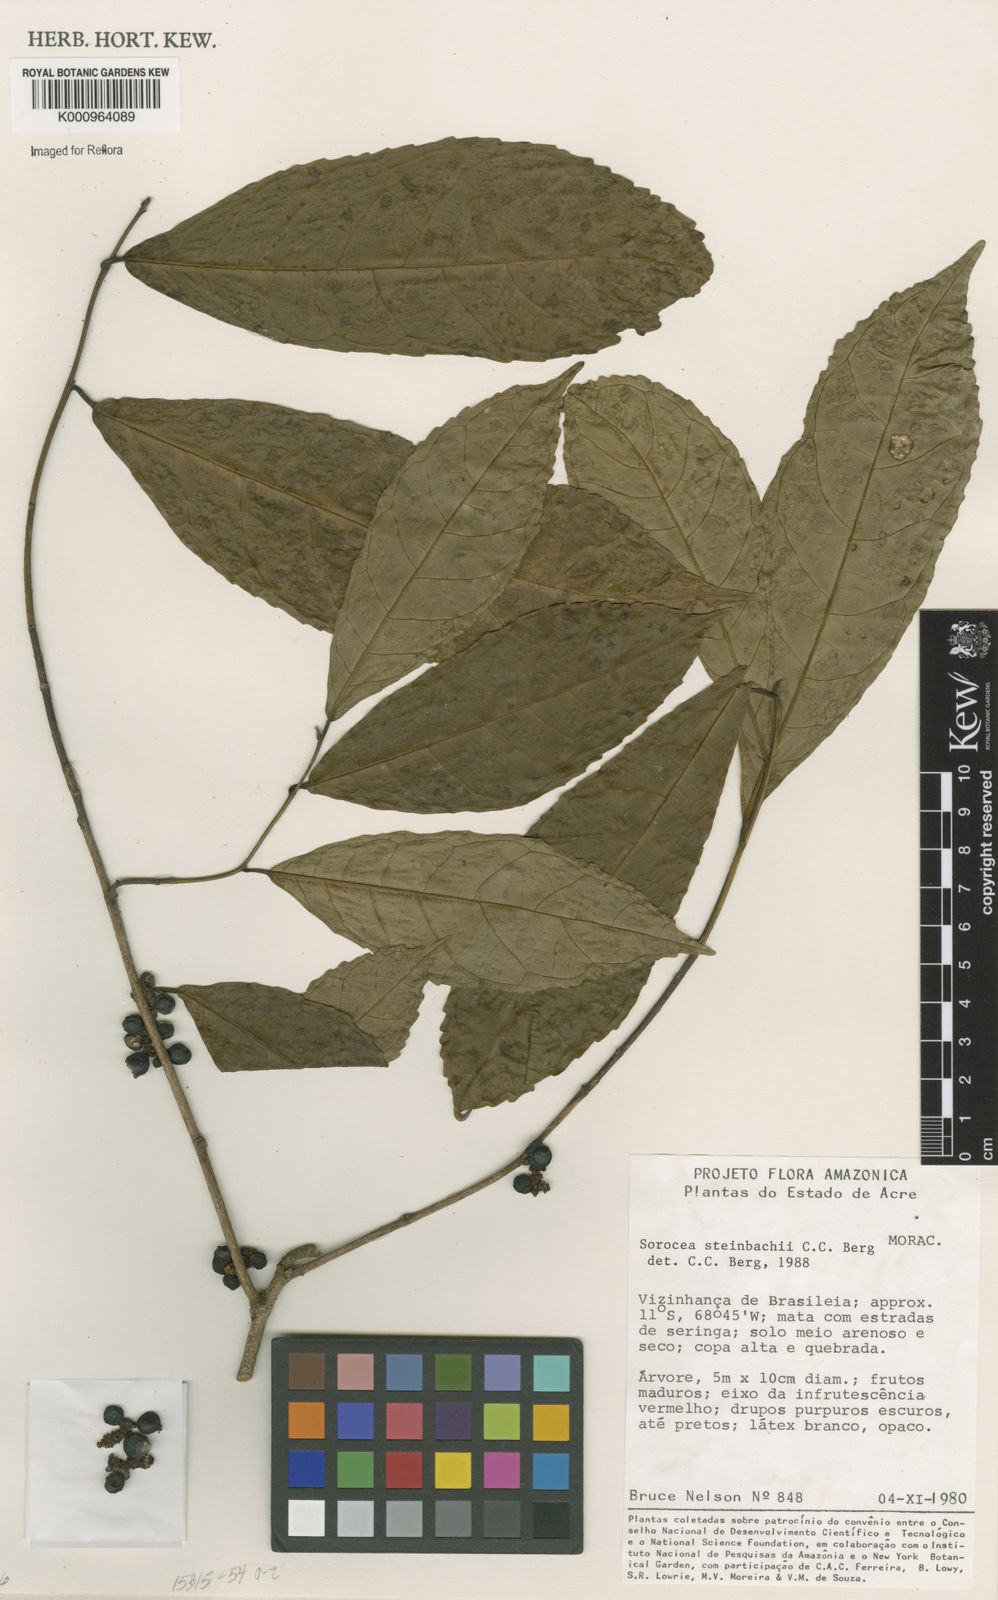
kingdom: Plantae
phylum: Tracheophyta
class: Magnoliopsida
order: Rosales
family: Moraceae
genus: Sorocea
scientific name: Sorocea steinbachii
